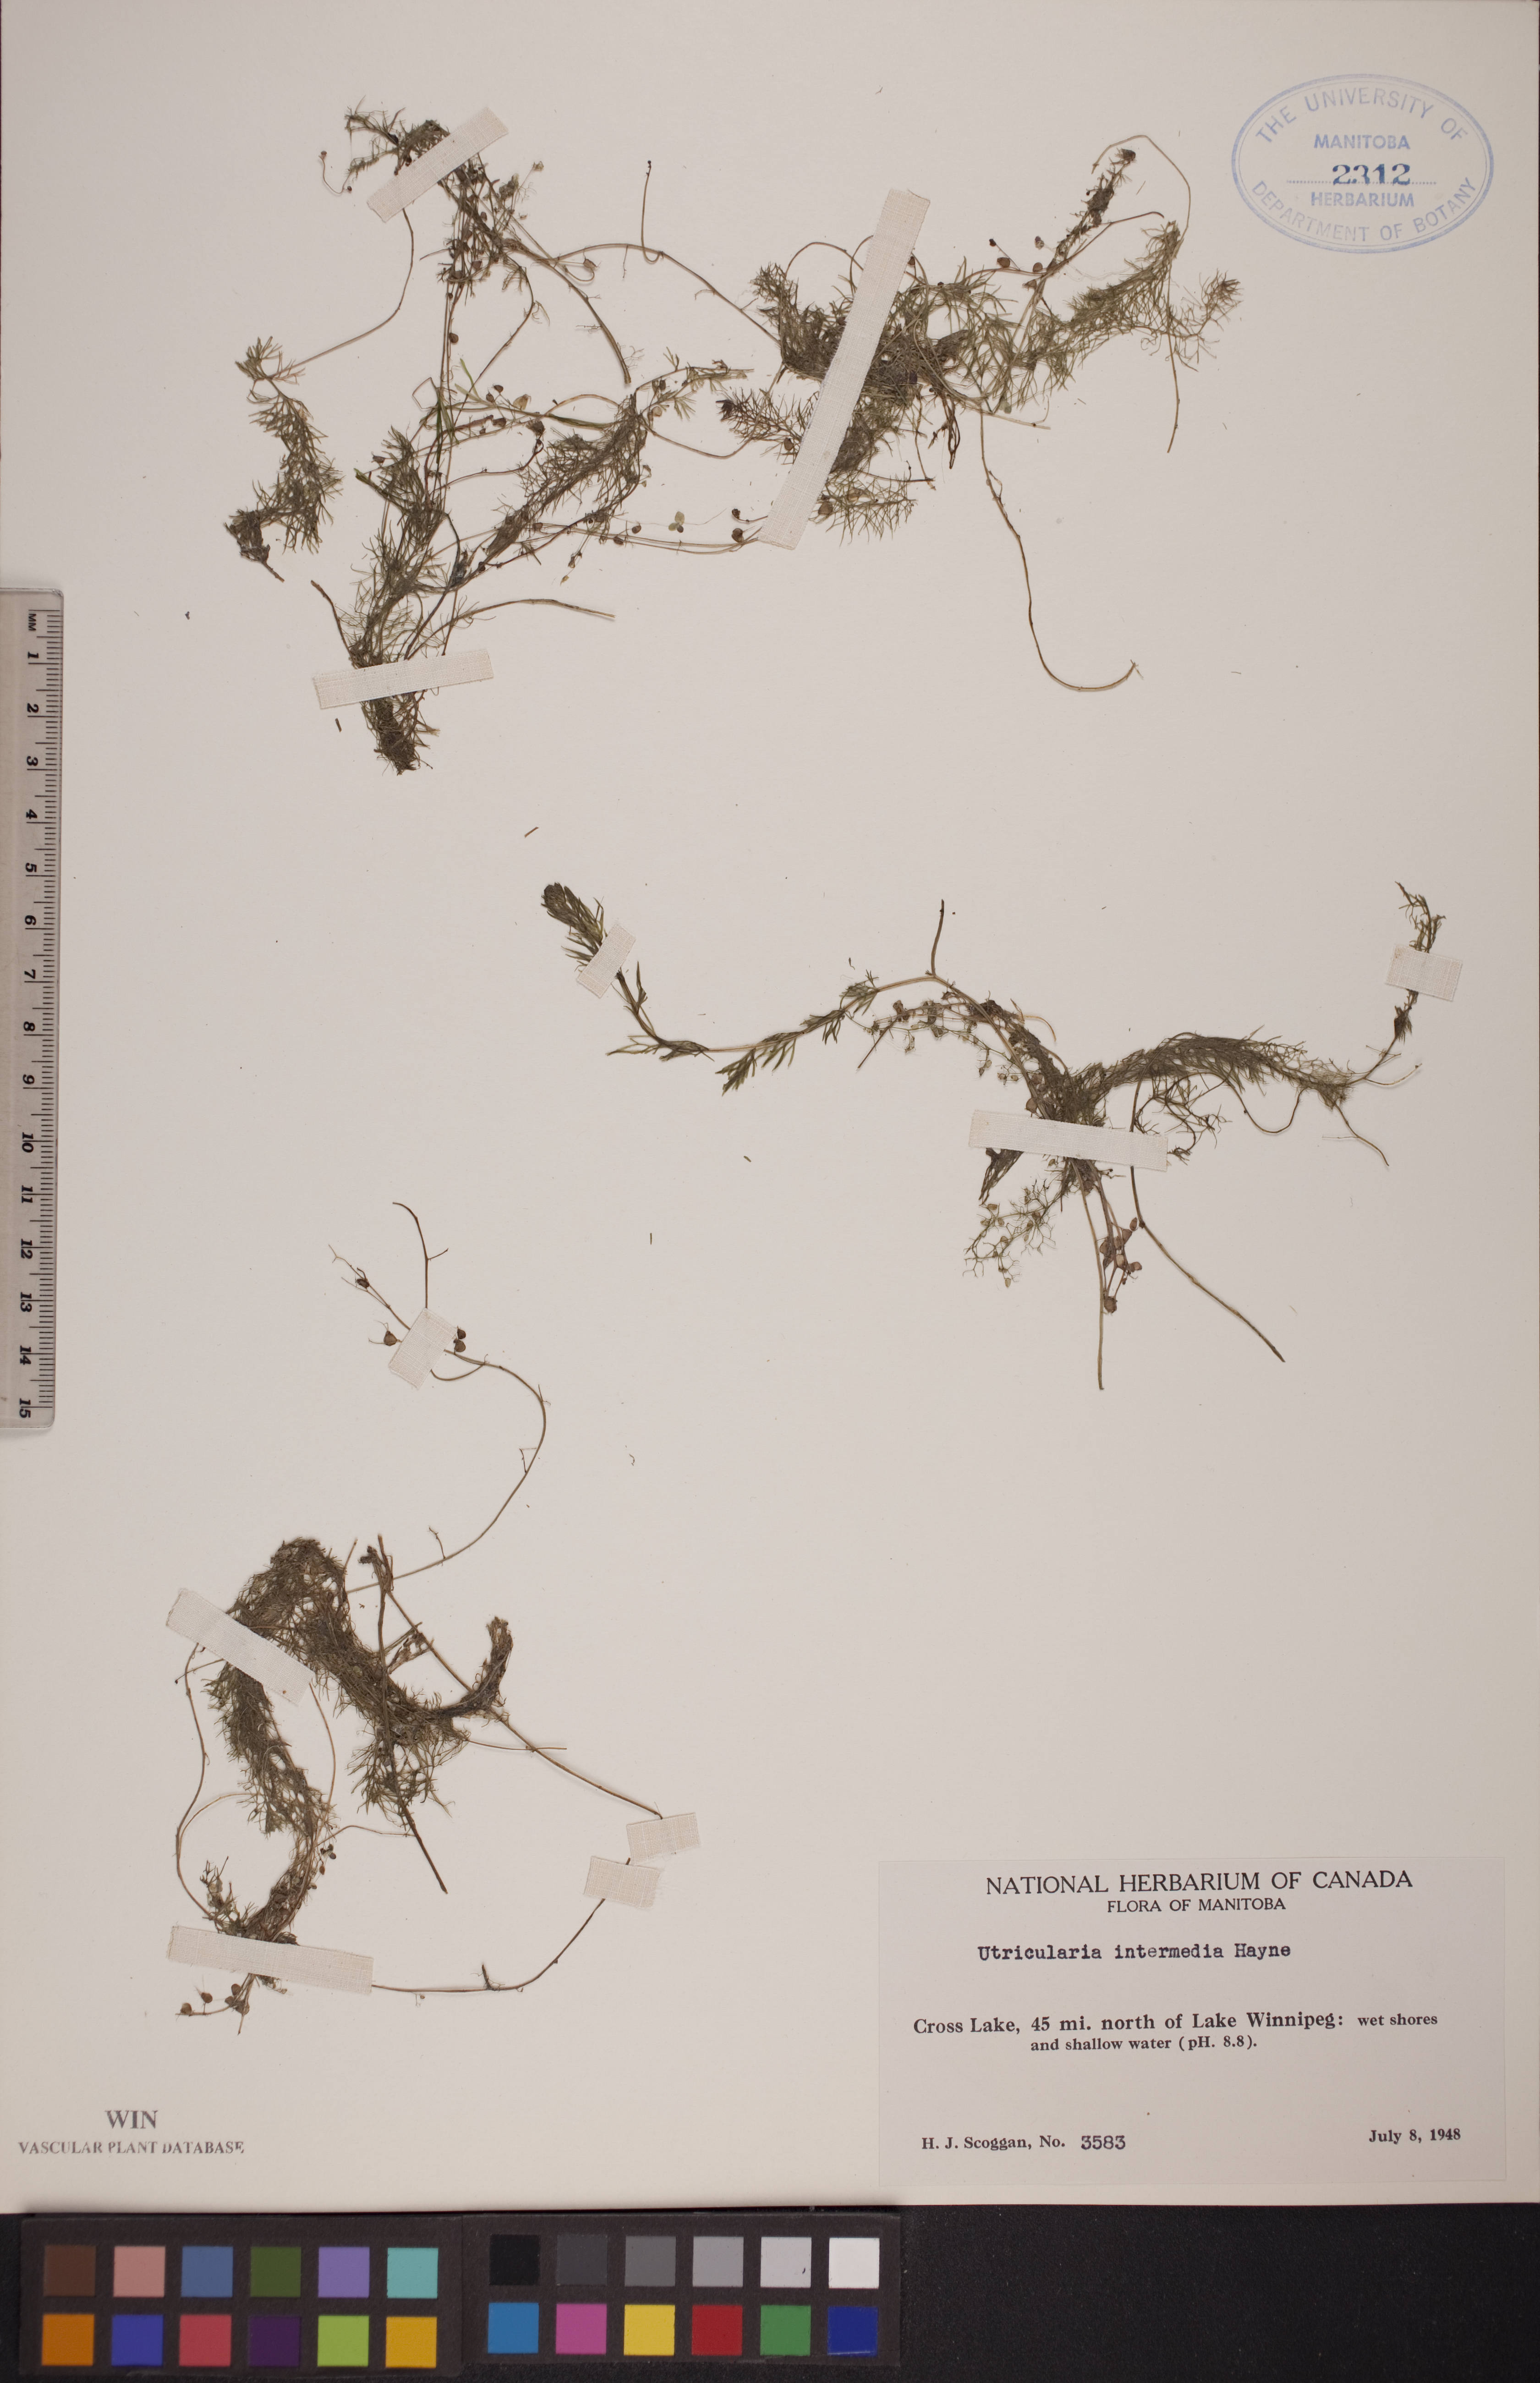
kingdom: Plantae
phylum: Tracheophyta
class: Magnoliopsida
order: Lamiales
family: Lentibulariaceae
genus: Utricularia
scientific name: Utricularia intermedia
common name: Intermediate bladderwort
